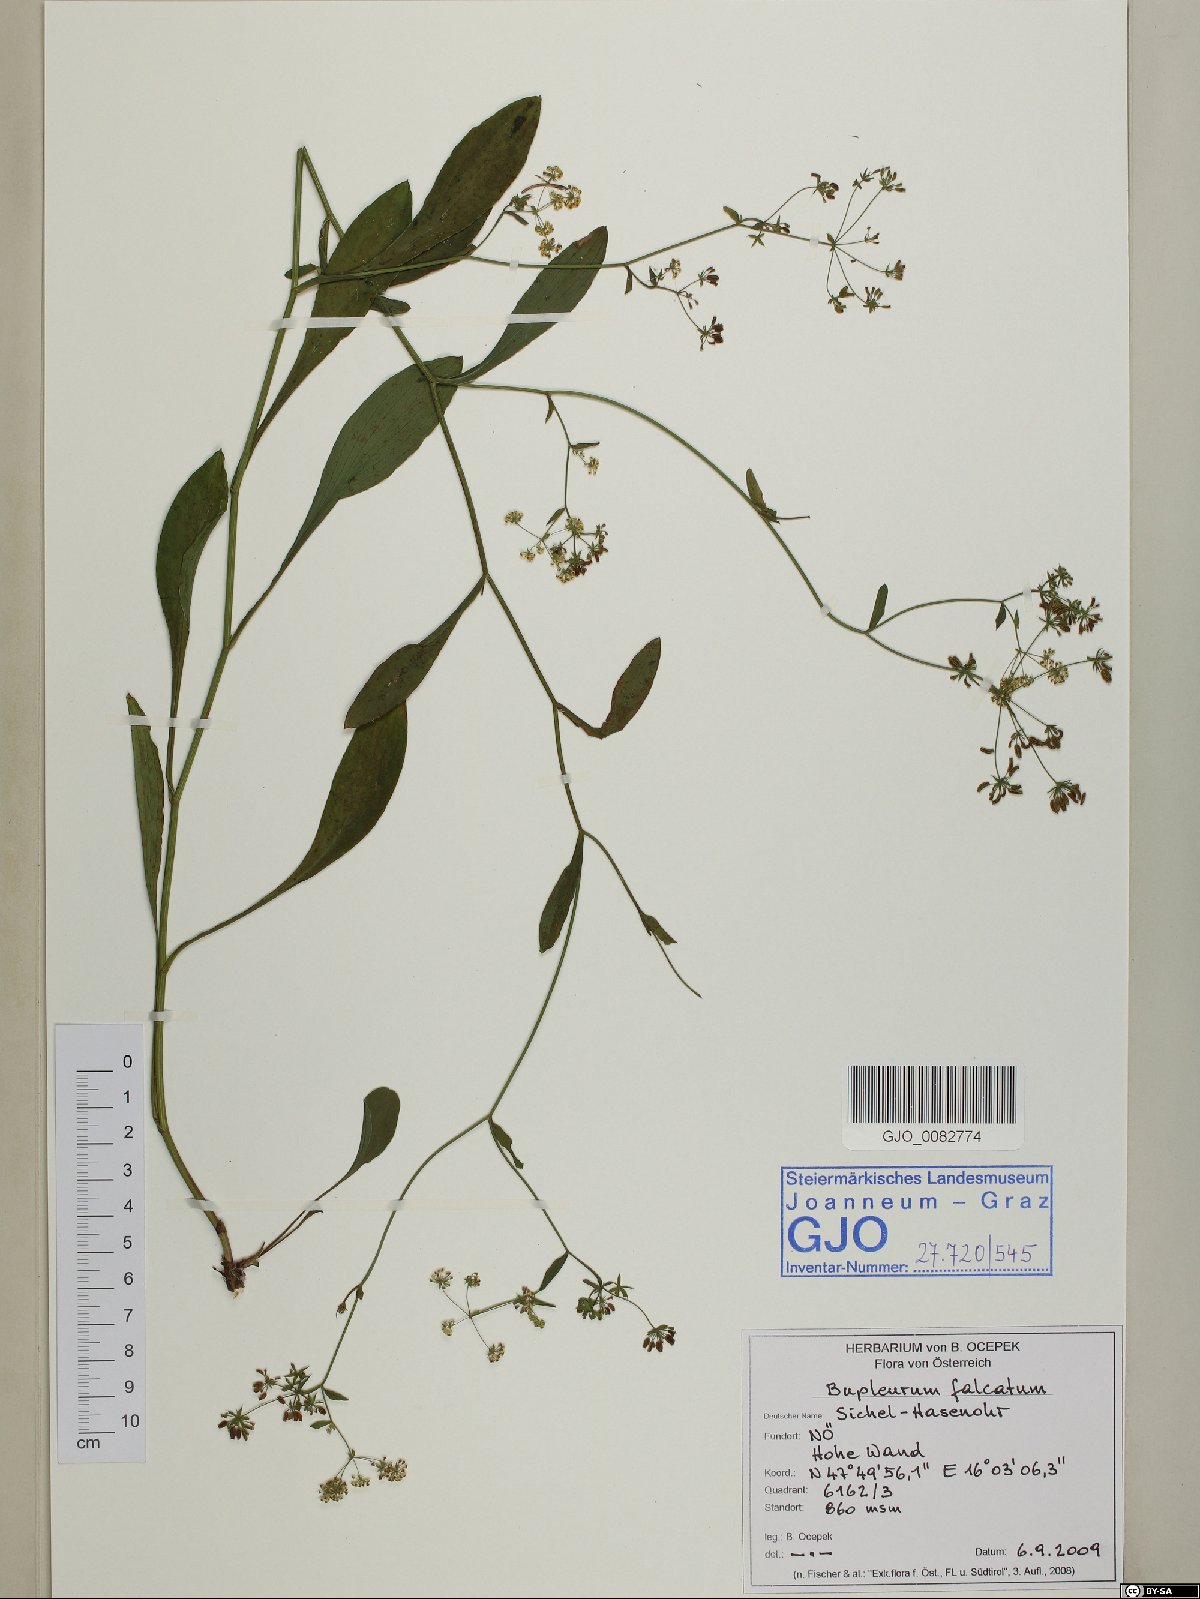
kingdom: Plantae
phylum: Tracheophyta
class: Magnoliopsida
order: Apiales
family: Apiaceae
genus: Bupleurum
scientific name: Bupleurum falcatum
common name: Sickle-leaved hare's-ear
